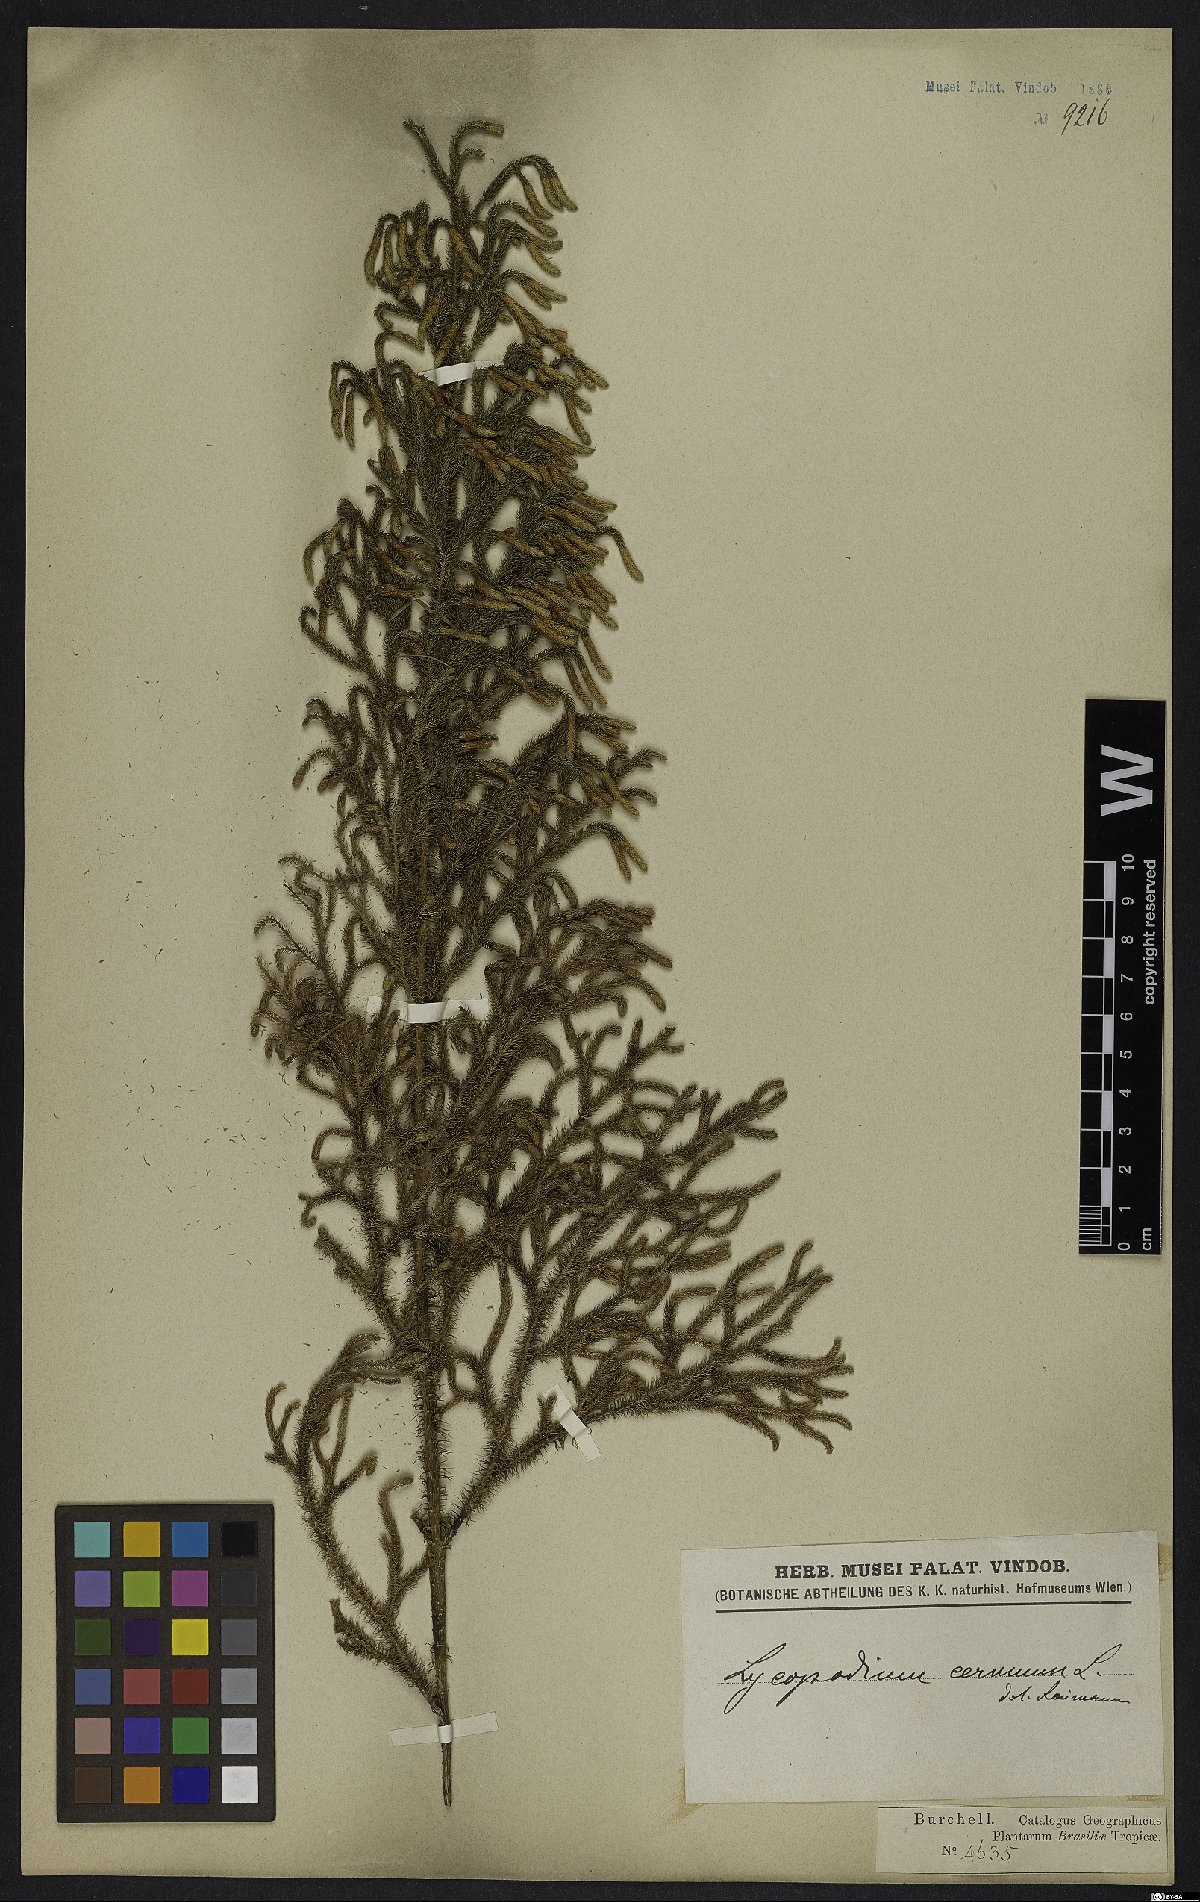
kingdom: Plantae
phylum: Tracheophyta
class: Lycopodiopsida
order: Lycopodiales
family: Lycopodiaceae
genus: Palhinhaea
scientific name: Palhinhaea cernua
